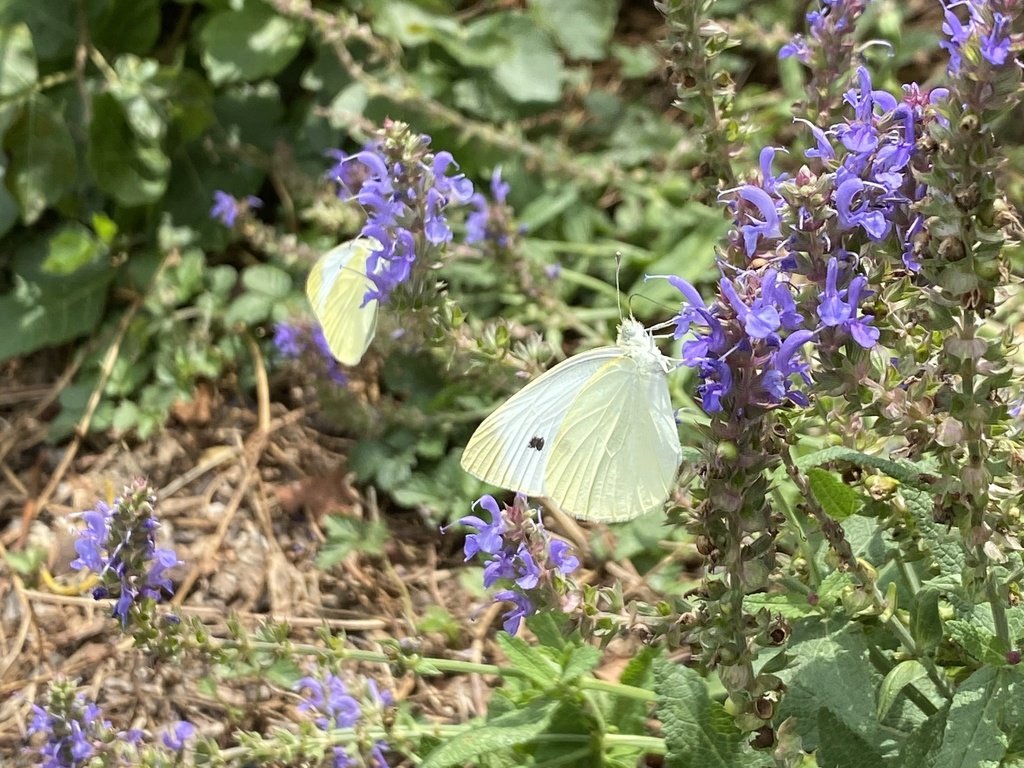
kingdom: Animalia
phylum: Arthropoda
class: Insecta
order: Lepidoptera
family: Pieridae
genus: Pieris
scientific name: Pieris rapae
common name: Cabbage White
